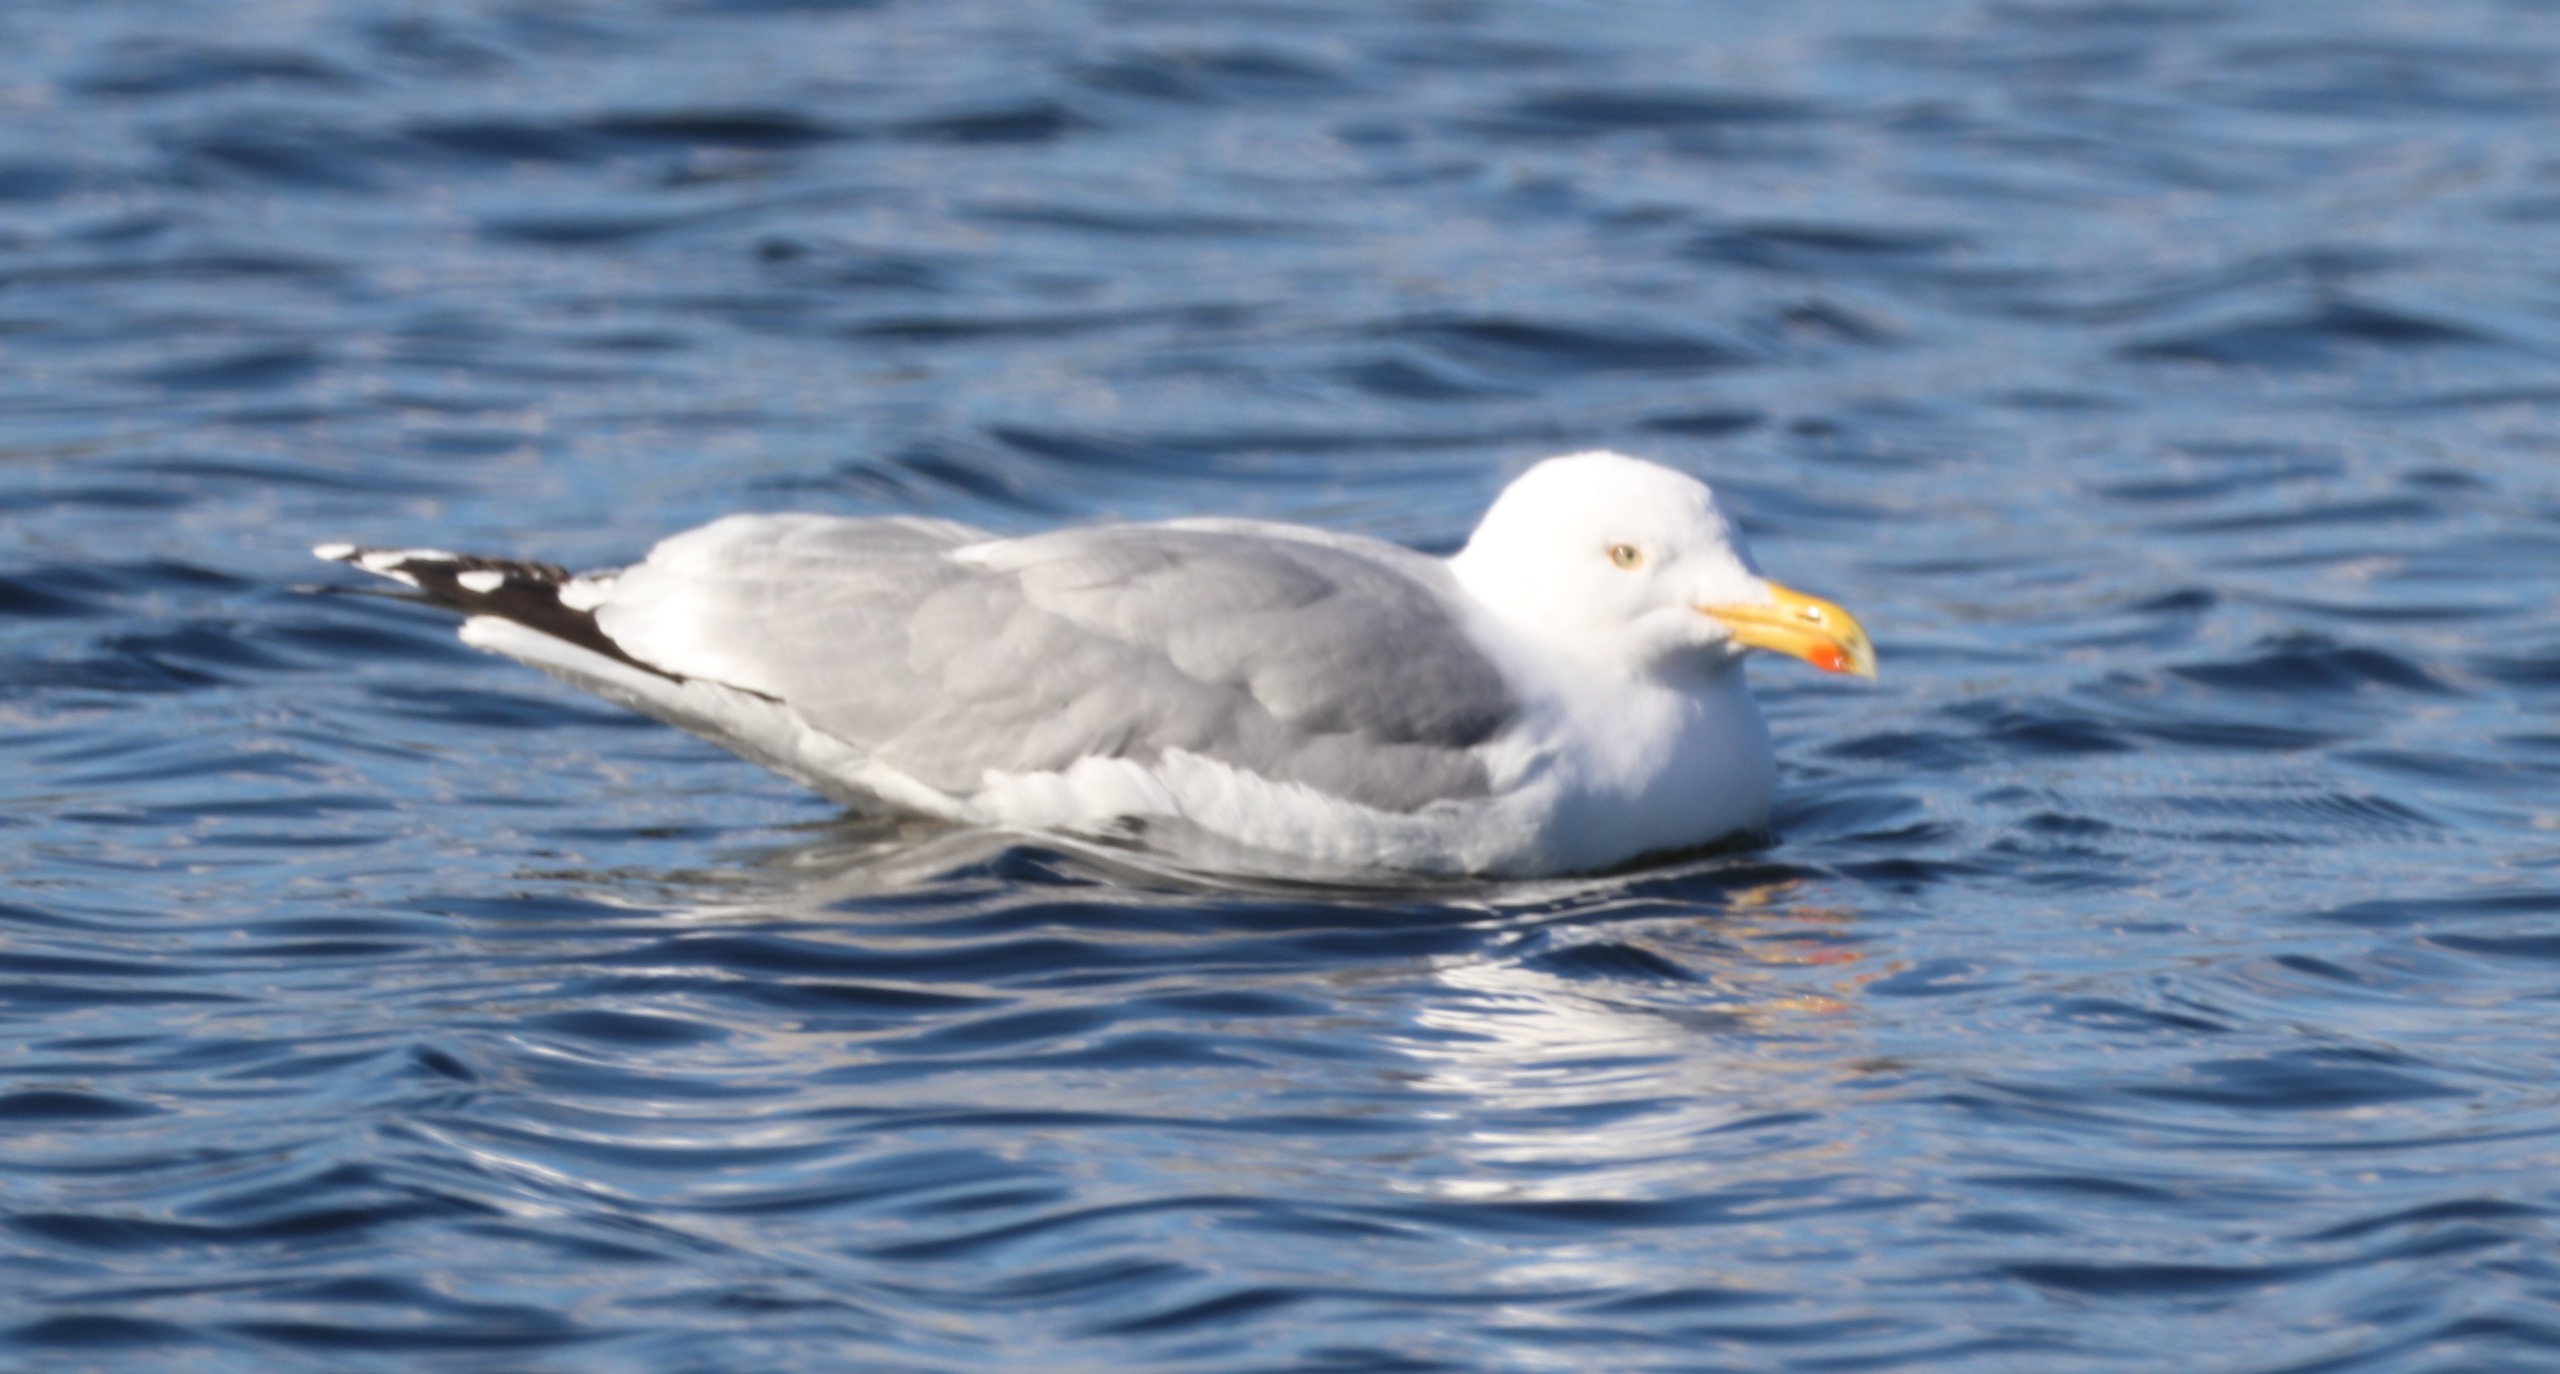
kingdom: Animalia
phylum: Chordata
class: Aves
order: Charadriiformes
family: Laridae
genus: Larus
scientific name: Larus argentatus
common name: Sølvmåge
